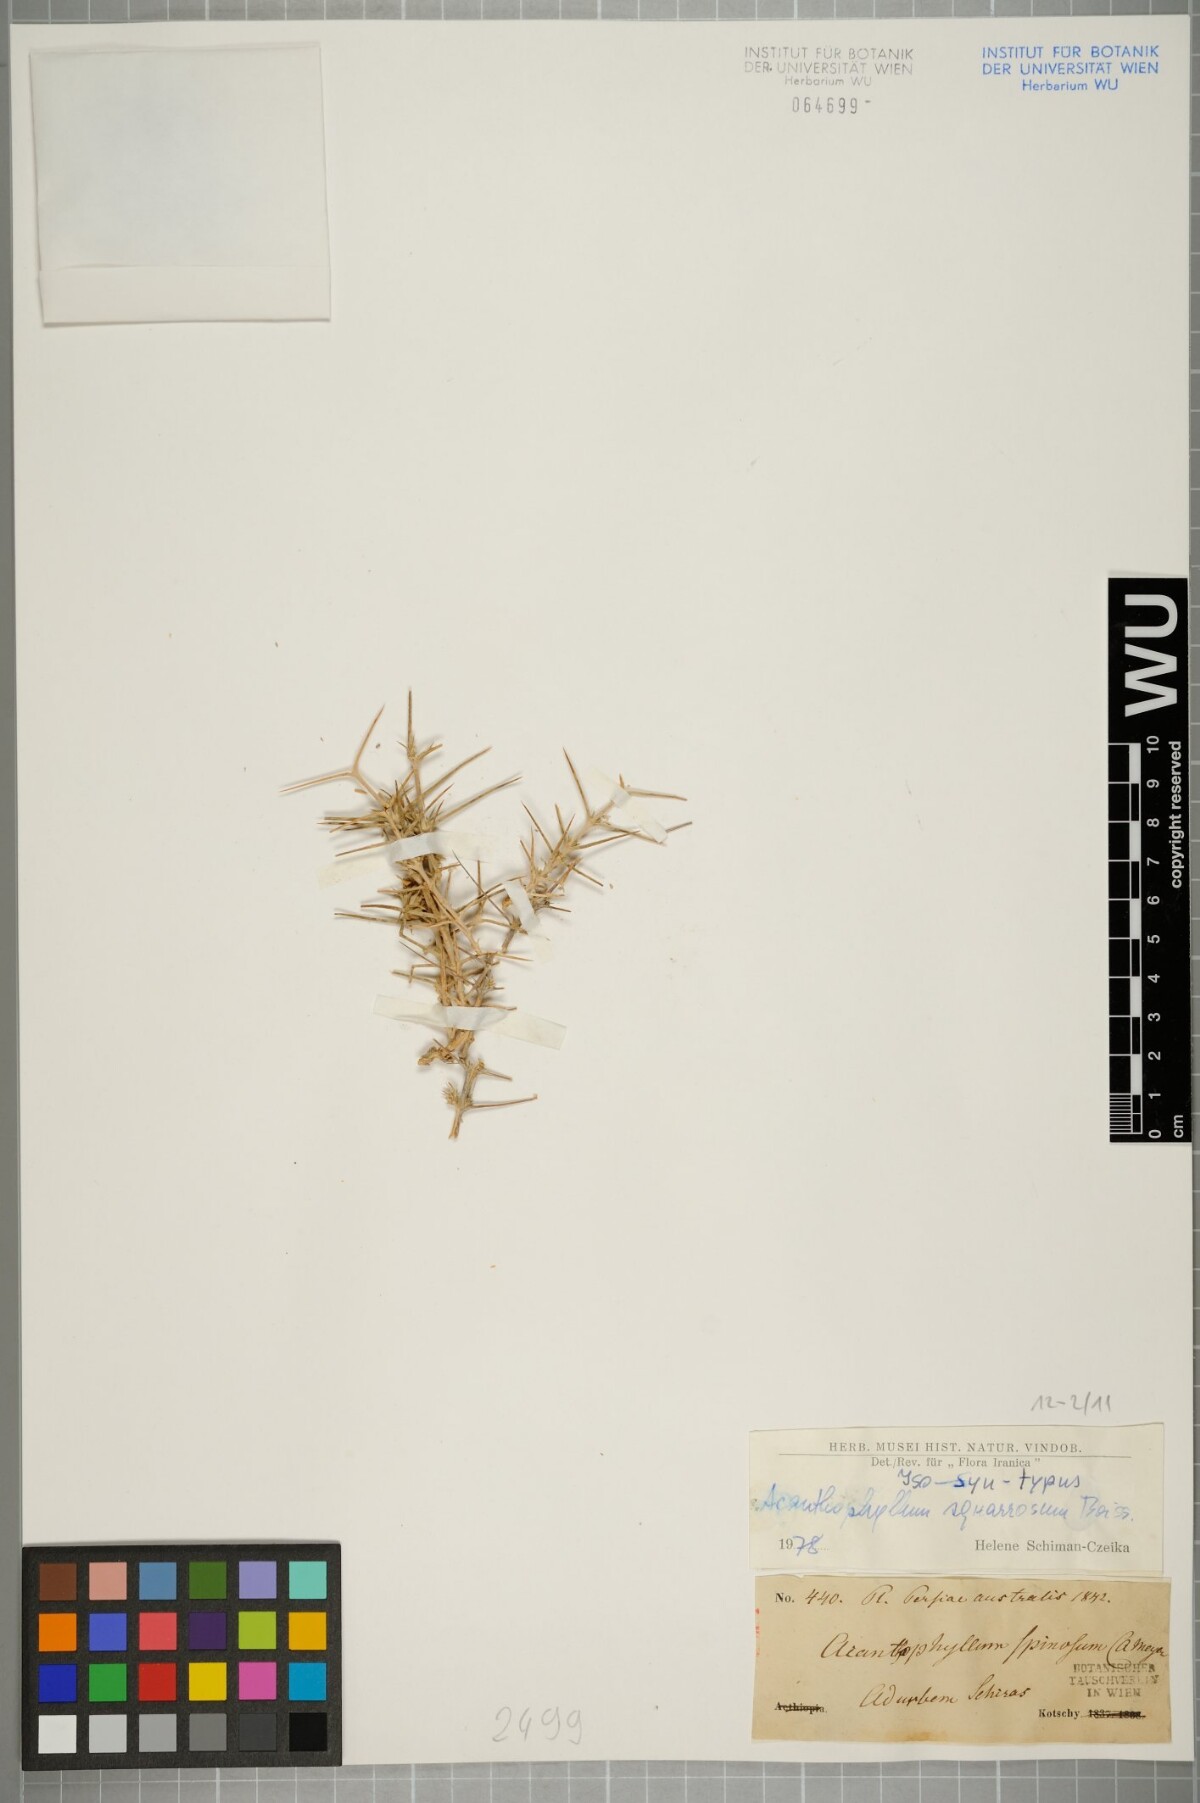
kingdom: Plantae
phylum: Tracheophyta
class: Magnoliopsida
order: Caryophyllales
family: Caryophyllaceae
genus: Acanthophyllum
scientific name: Acanthophyllum squarrosum
